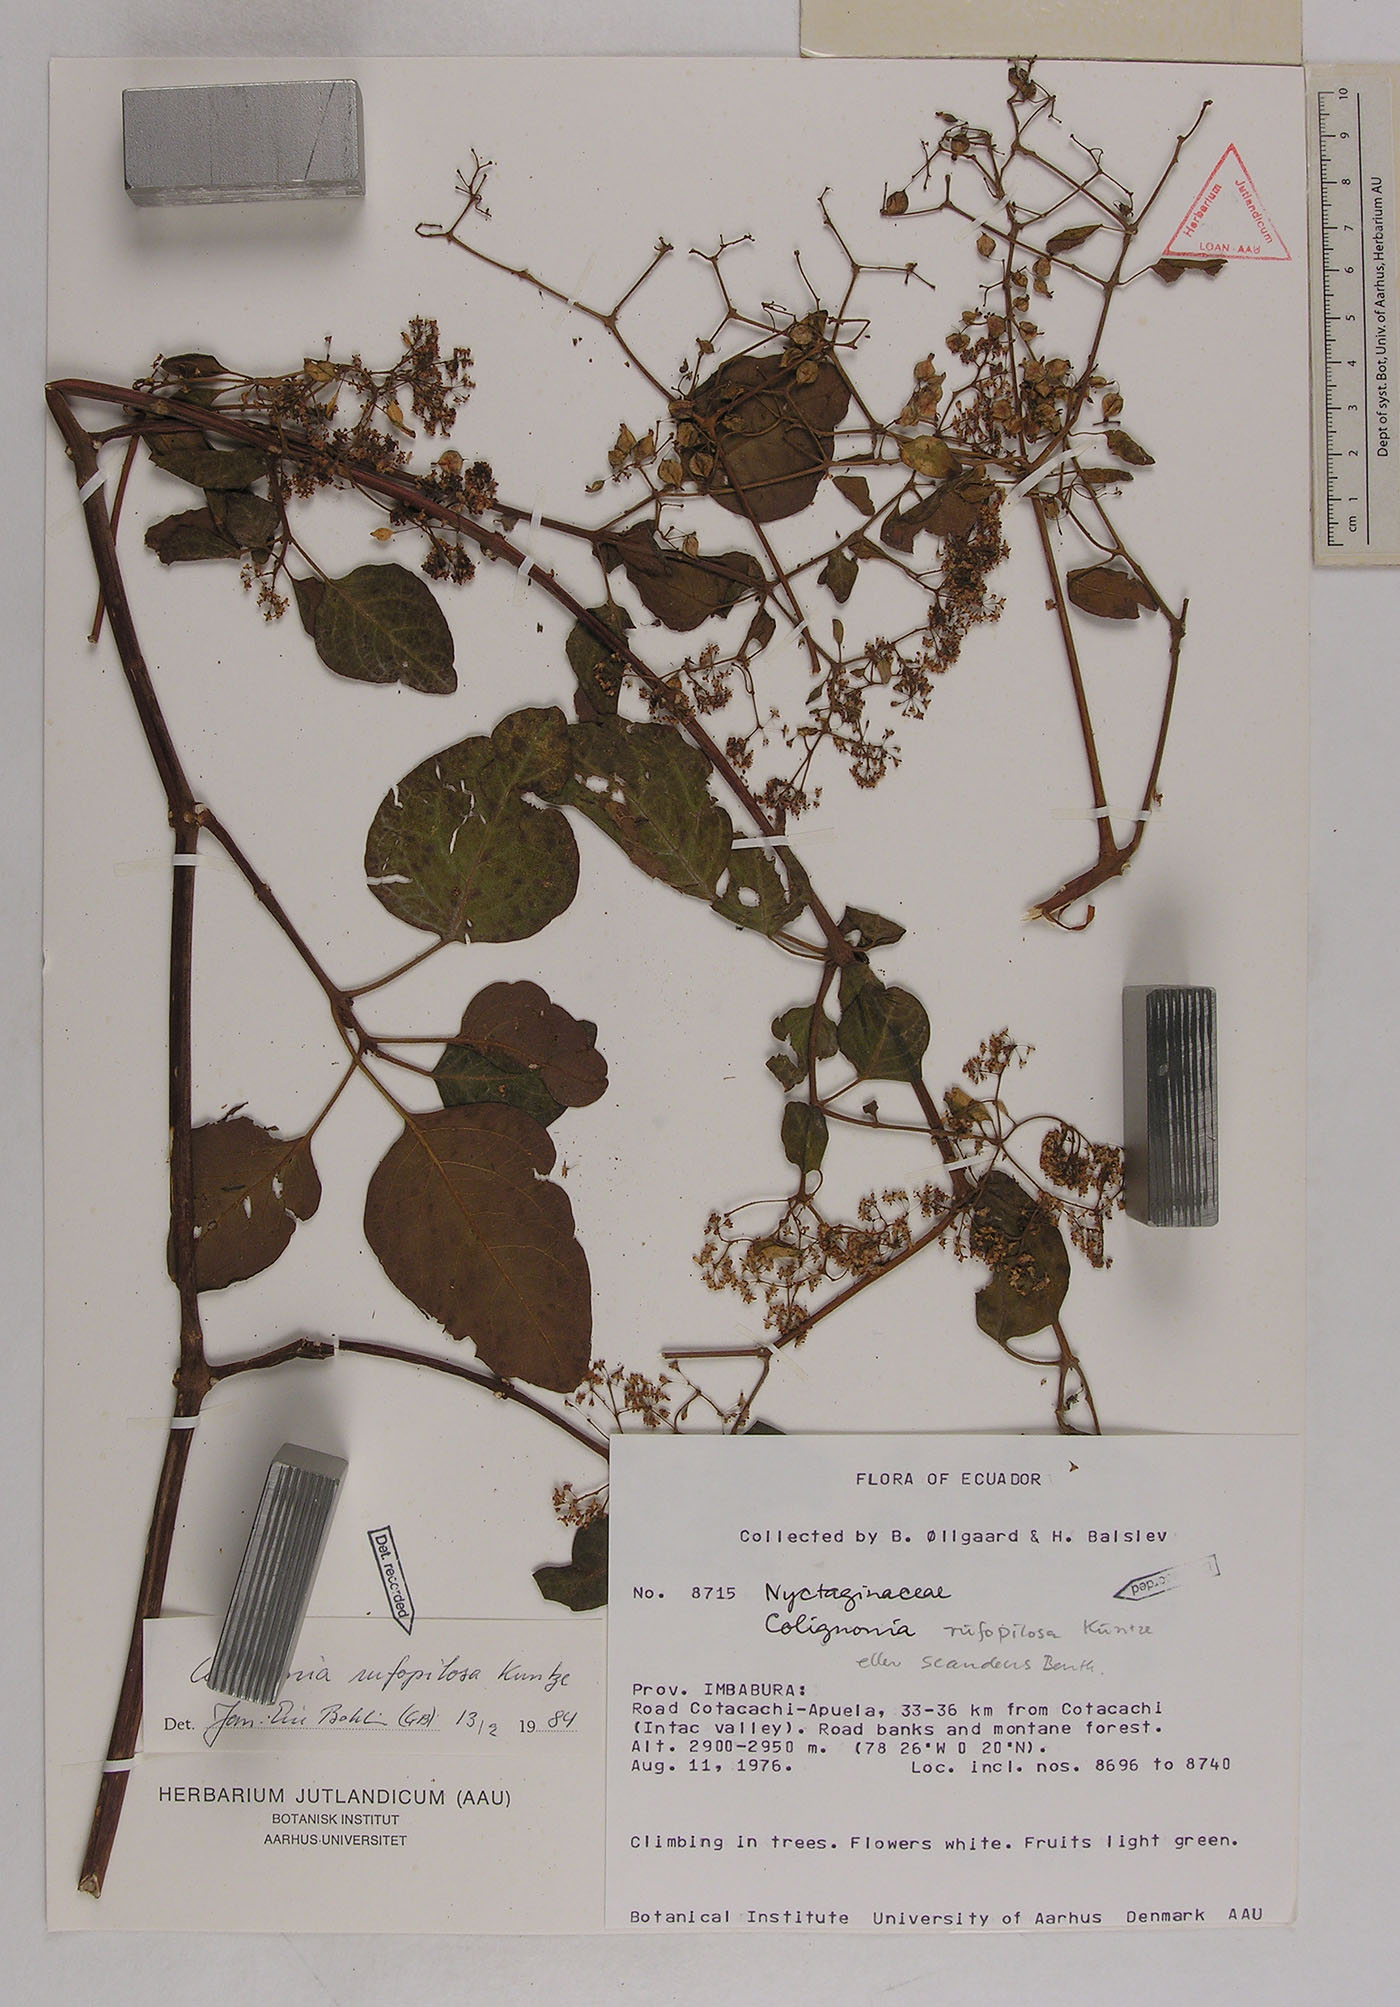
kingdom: Plantae
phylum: Tracheophyta
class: Magnoliopsida
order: Caryophyllales
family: Nyctaginaceae
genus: Colignonia
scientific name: Colignonia rufopilosa
